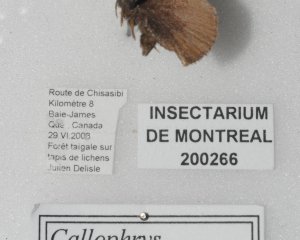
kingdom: Animalia
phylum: Arthropoda
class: Insecta
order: Lepidoptera
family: Lycaenidae
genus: Incisalia
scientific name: Incisalia irioides
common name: Brown Elfin
